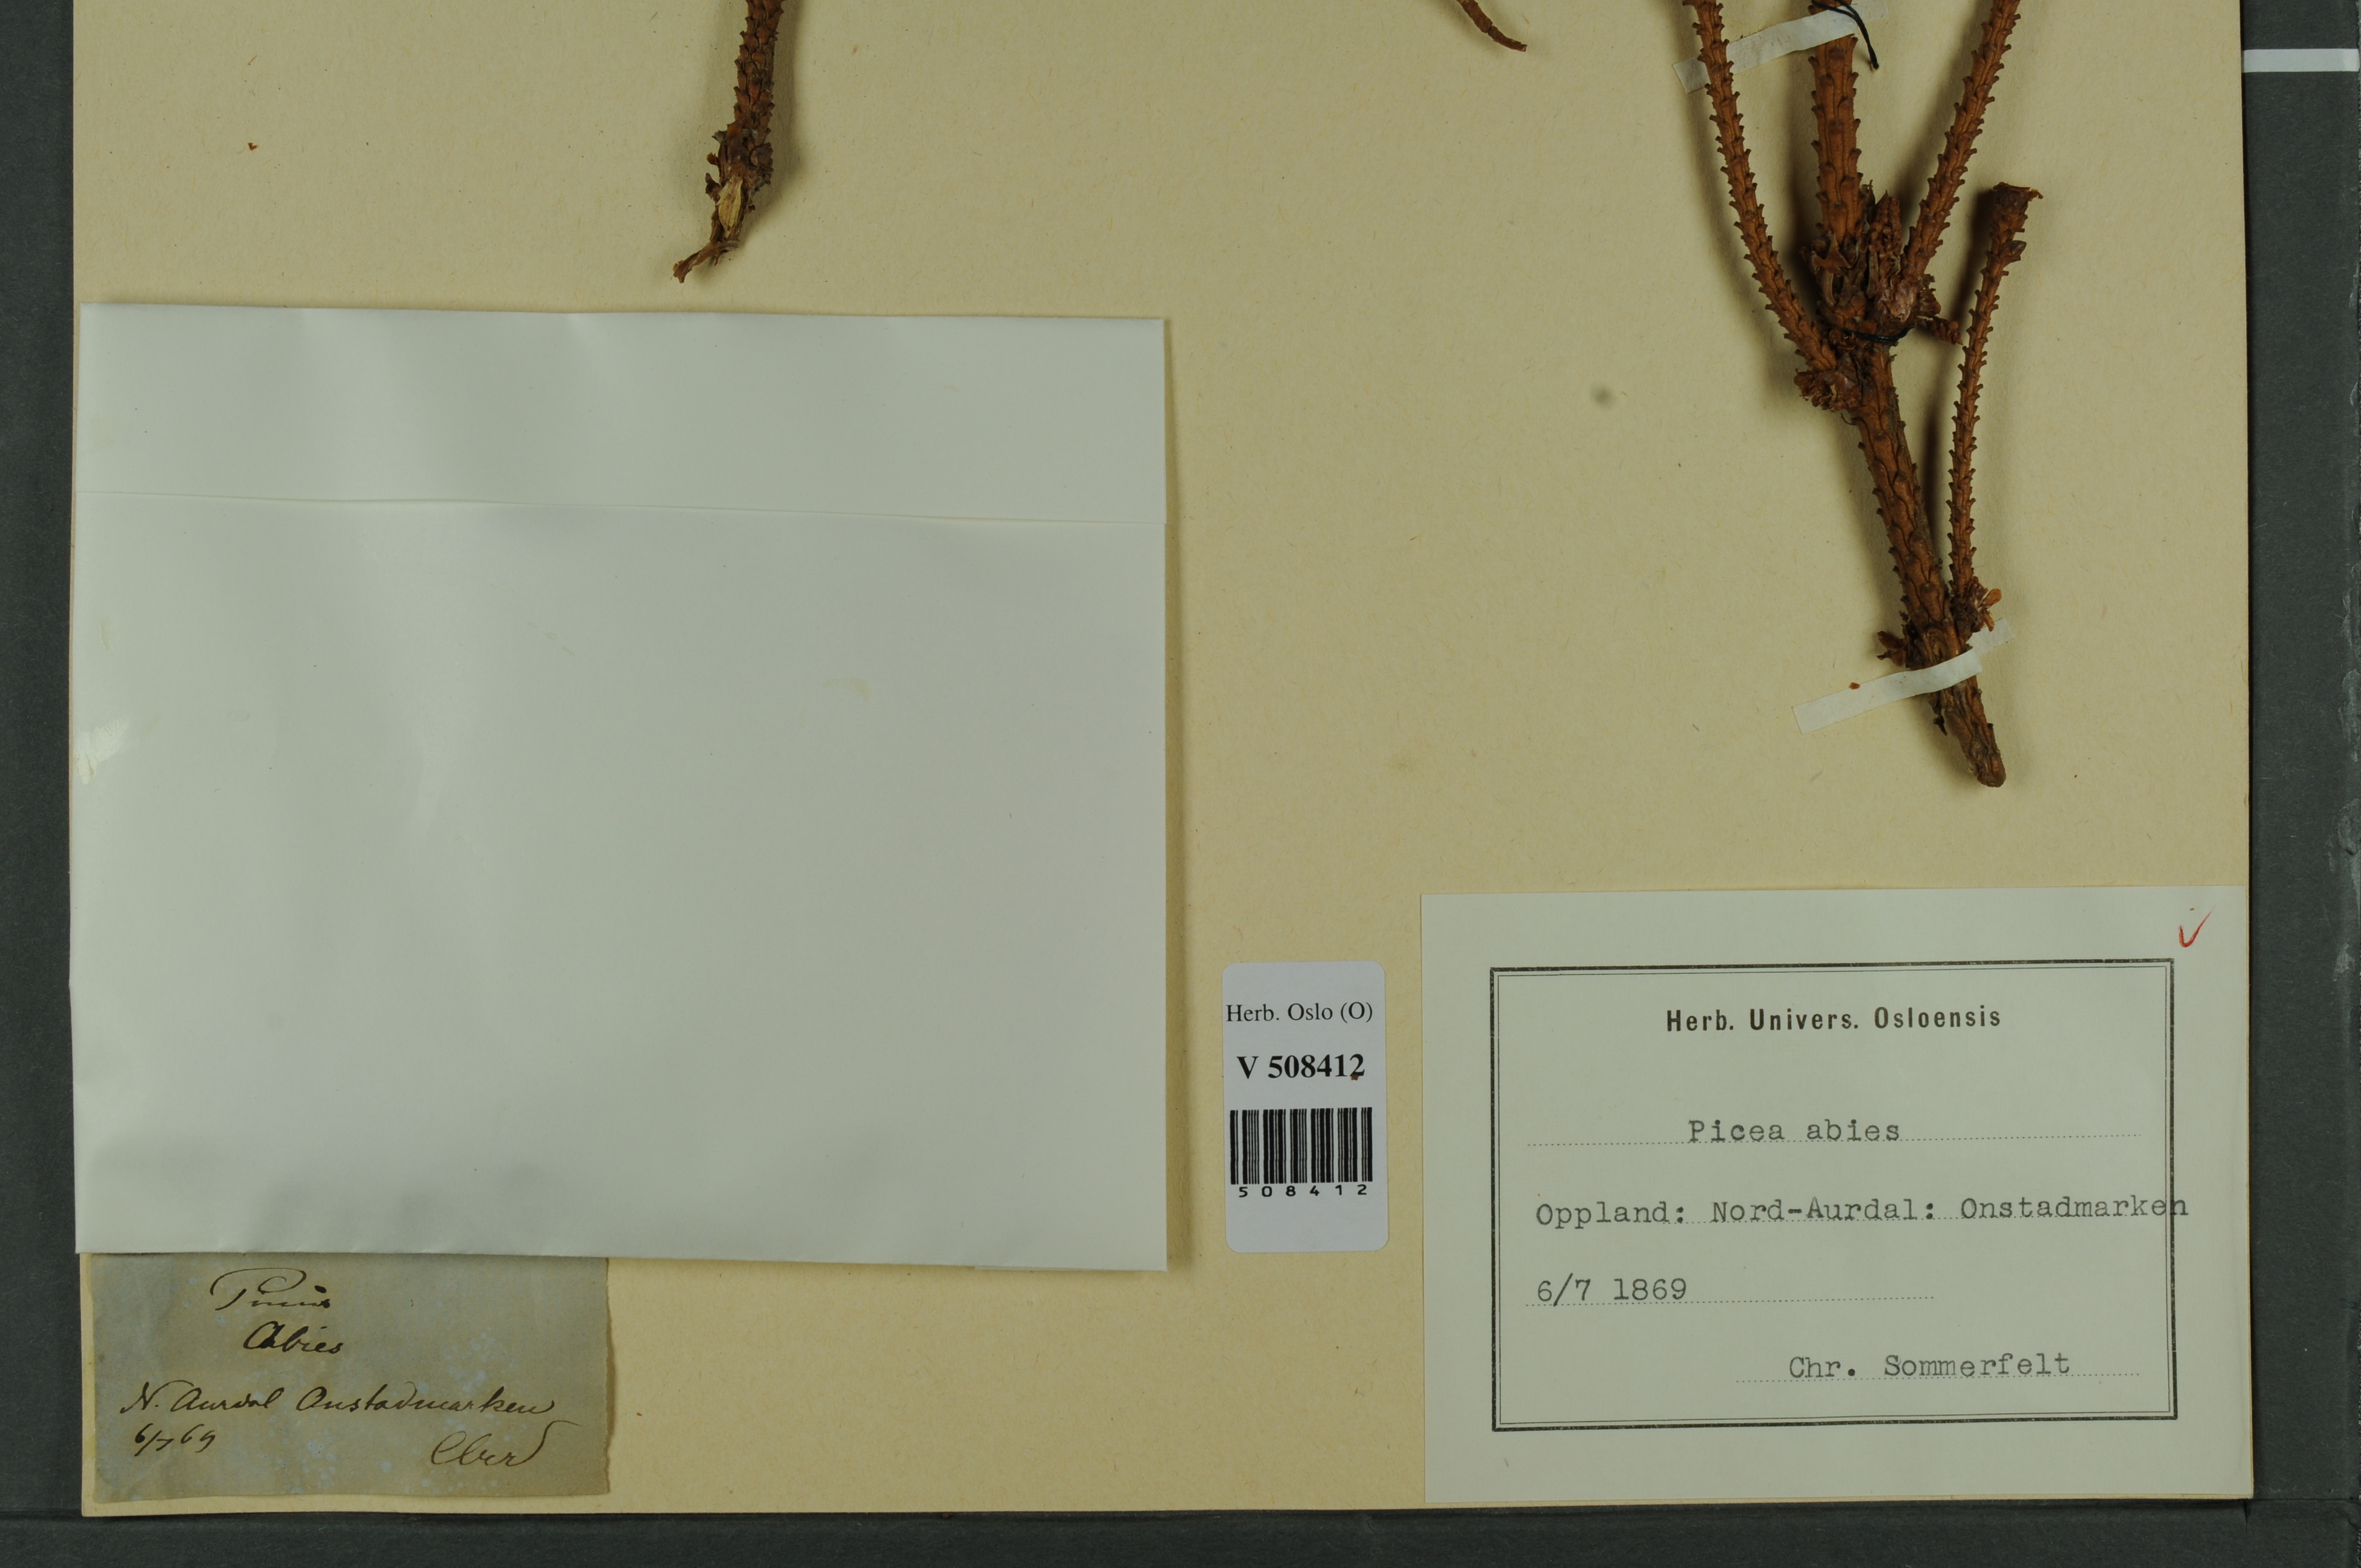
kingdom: Plantae
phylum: Tracheophyta
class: Pinopsida
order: Pinales
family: Pinaceae
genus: Picea
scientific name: Picea abies
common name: Norway spruce
